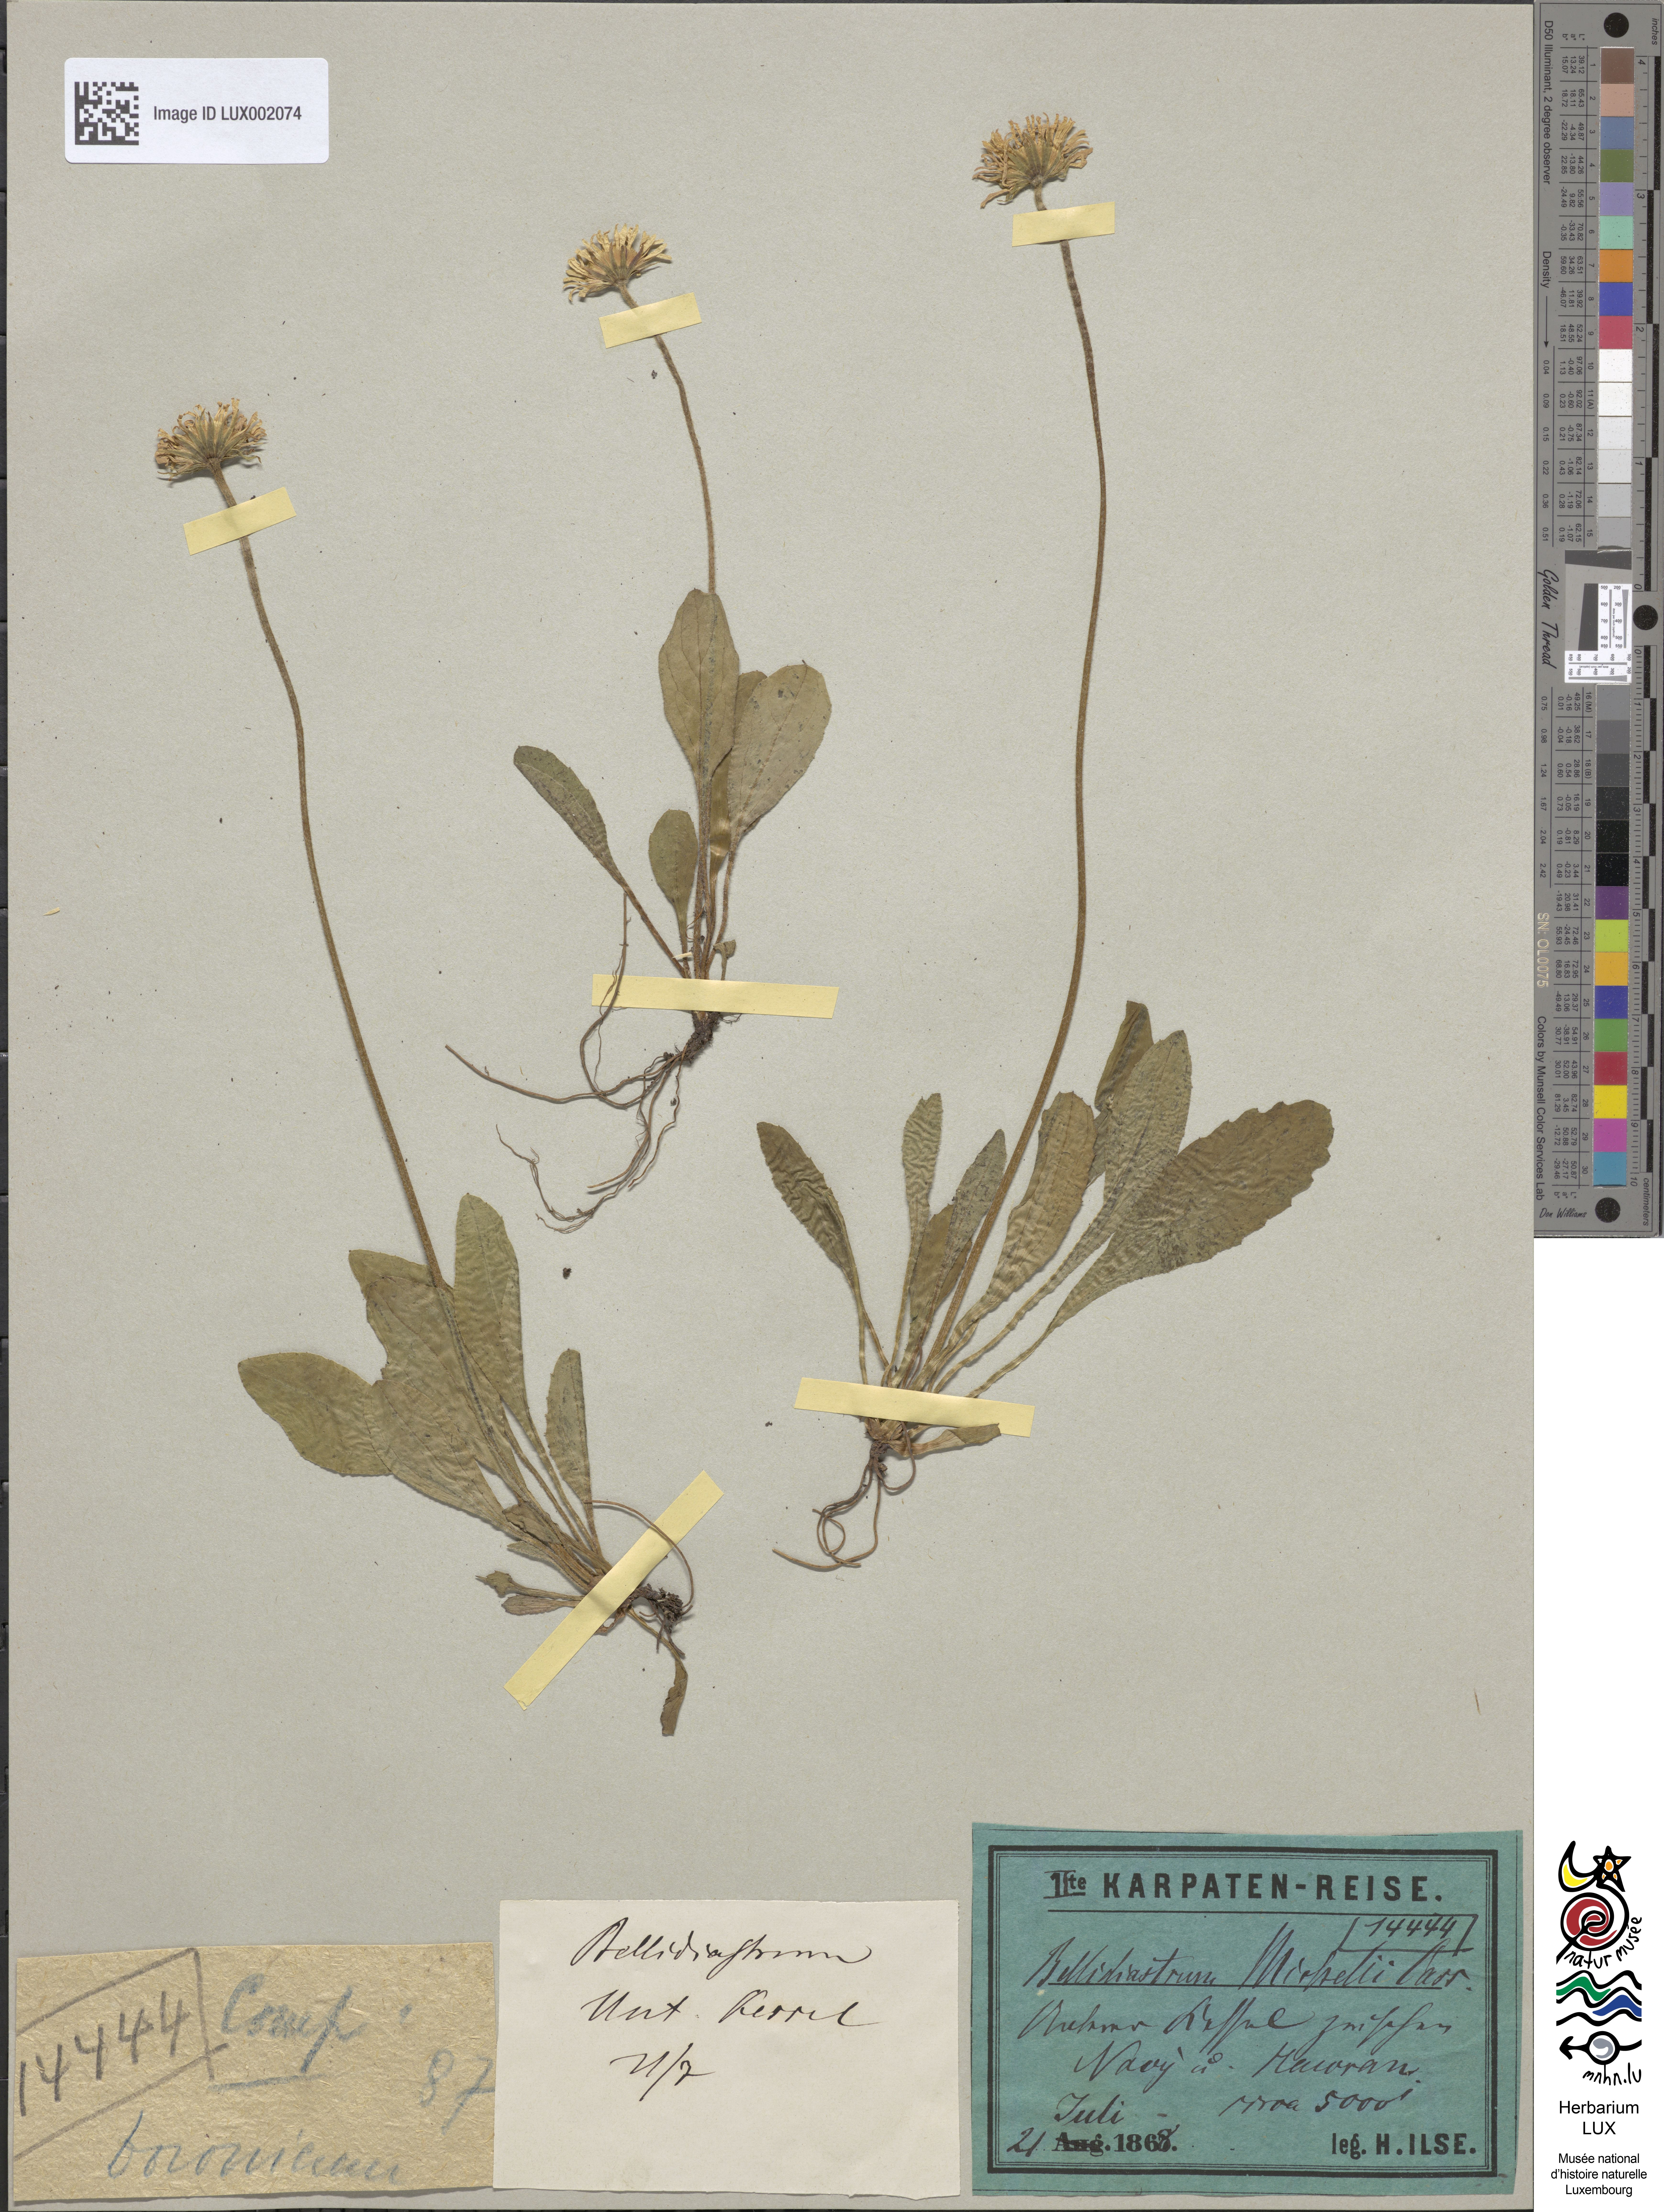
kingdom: Plantae
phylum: Tracheophyta
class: Magnoliopsida
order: Asterales
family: Asteraceae
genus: Bellidiastrum
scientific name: Bellidiastrum michelii
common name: Daisy-star aster
